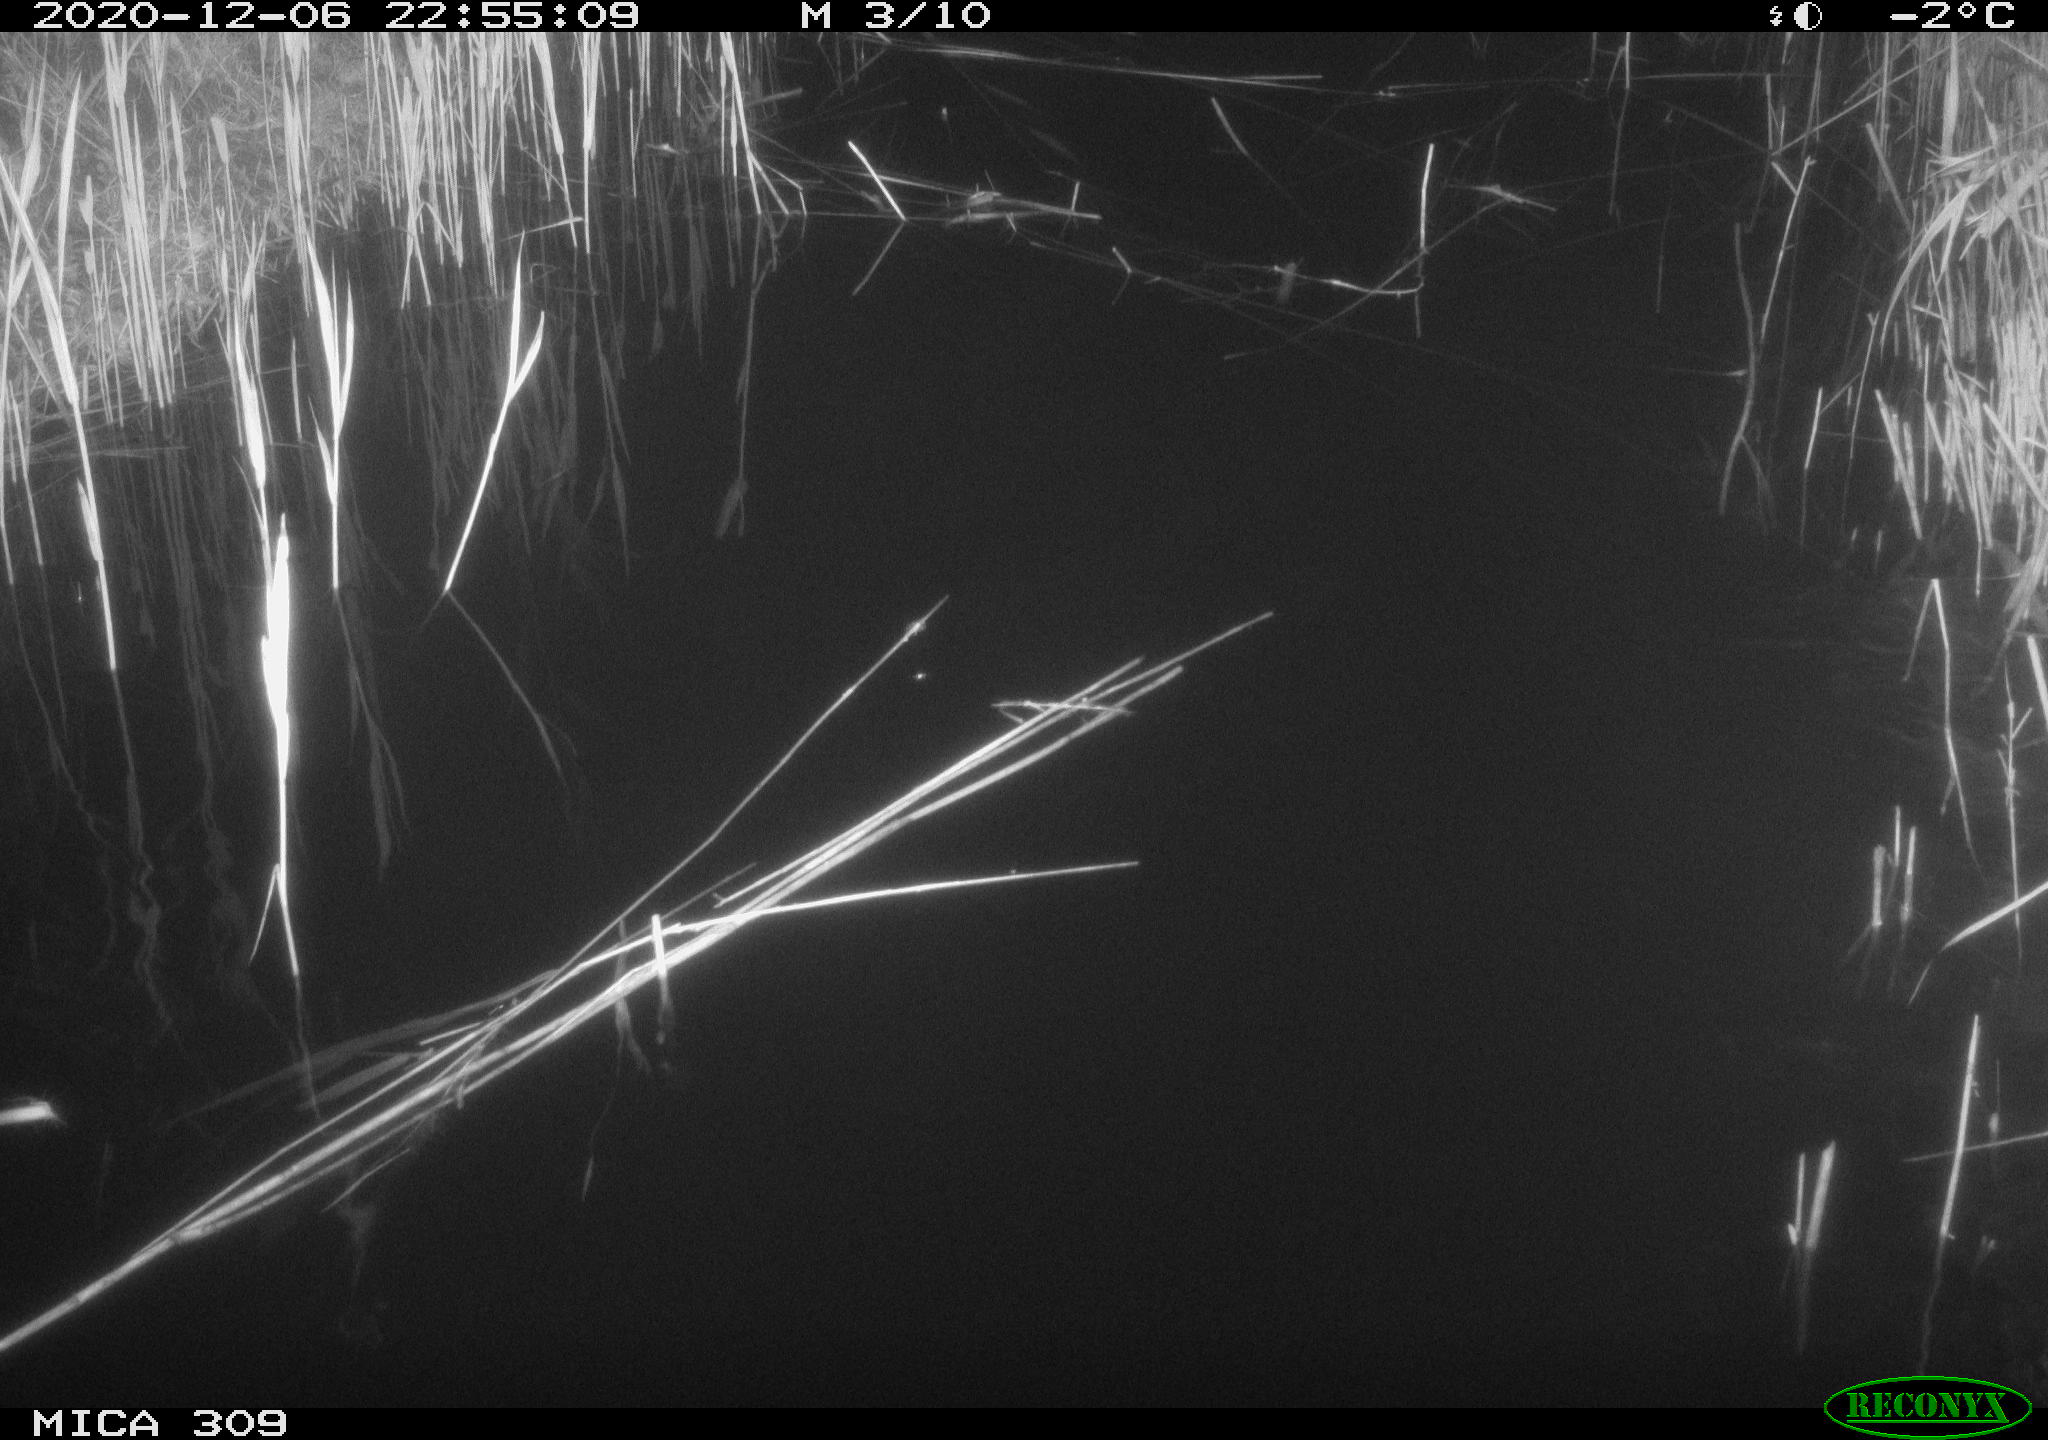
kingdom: Animalia
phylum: Chordata
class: Mammalia
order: Rodentia
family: Muridae
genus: Rattus
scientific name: Rattus norvegicus
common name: Brown rat
